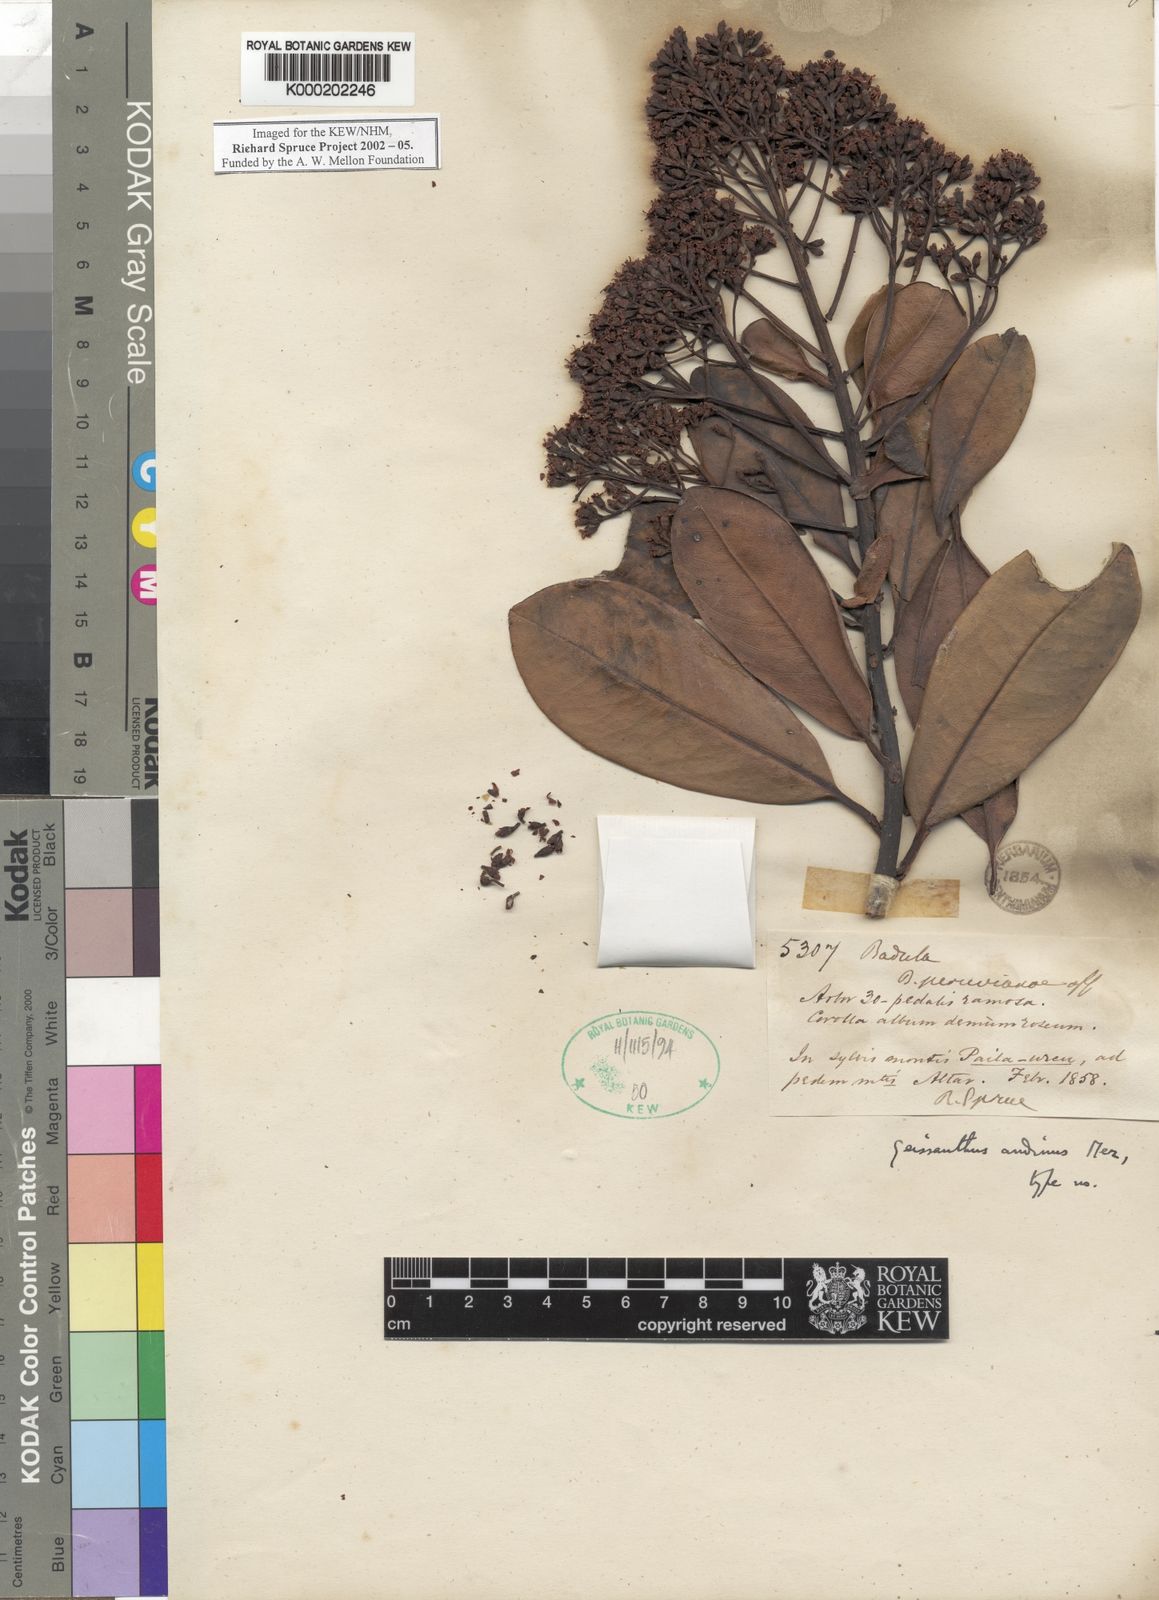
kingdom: Plantae
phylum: Tracheophyta
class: Magnoliopsida
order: Ericales
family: Primulaceae
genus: Geissanthus
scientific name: Geissanthus andinus
